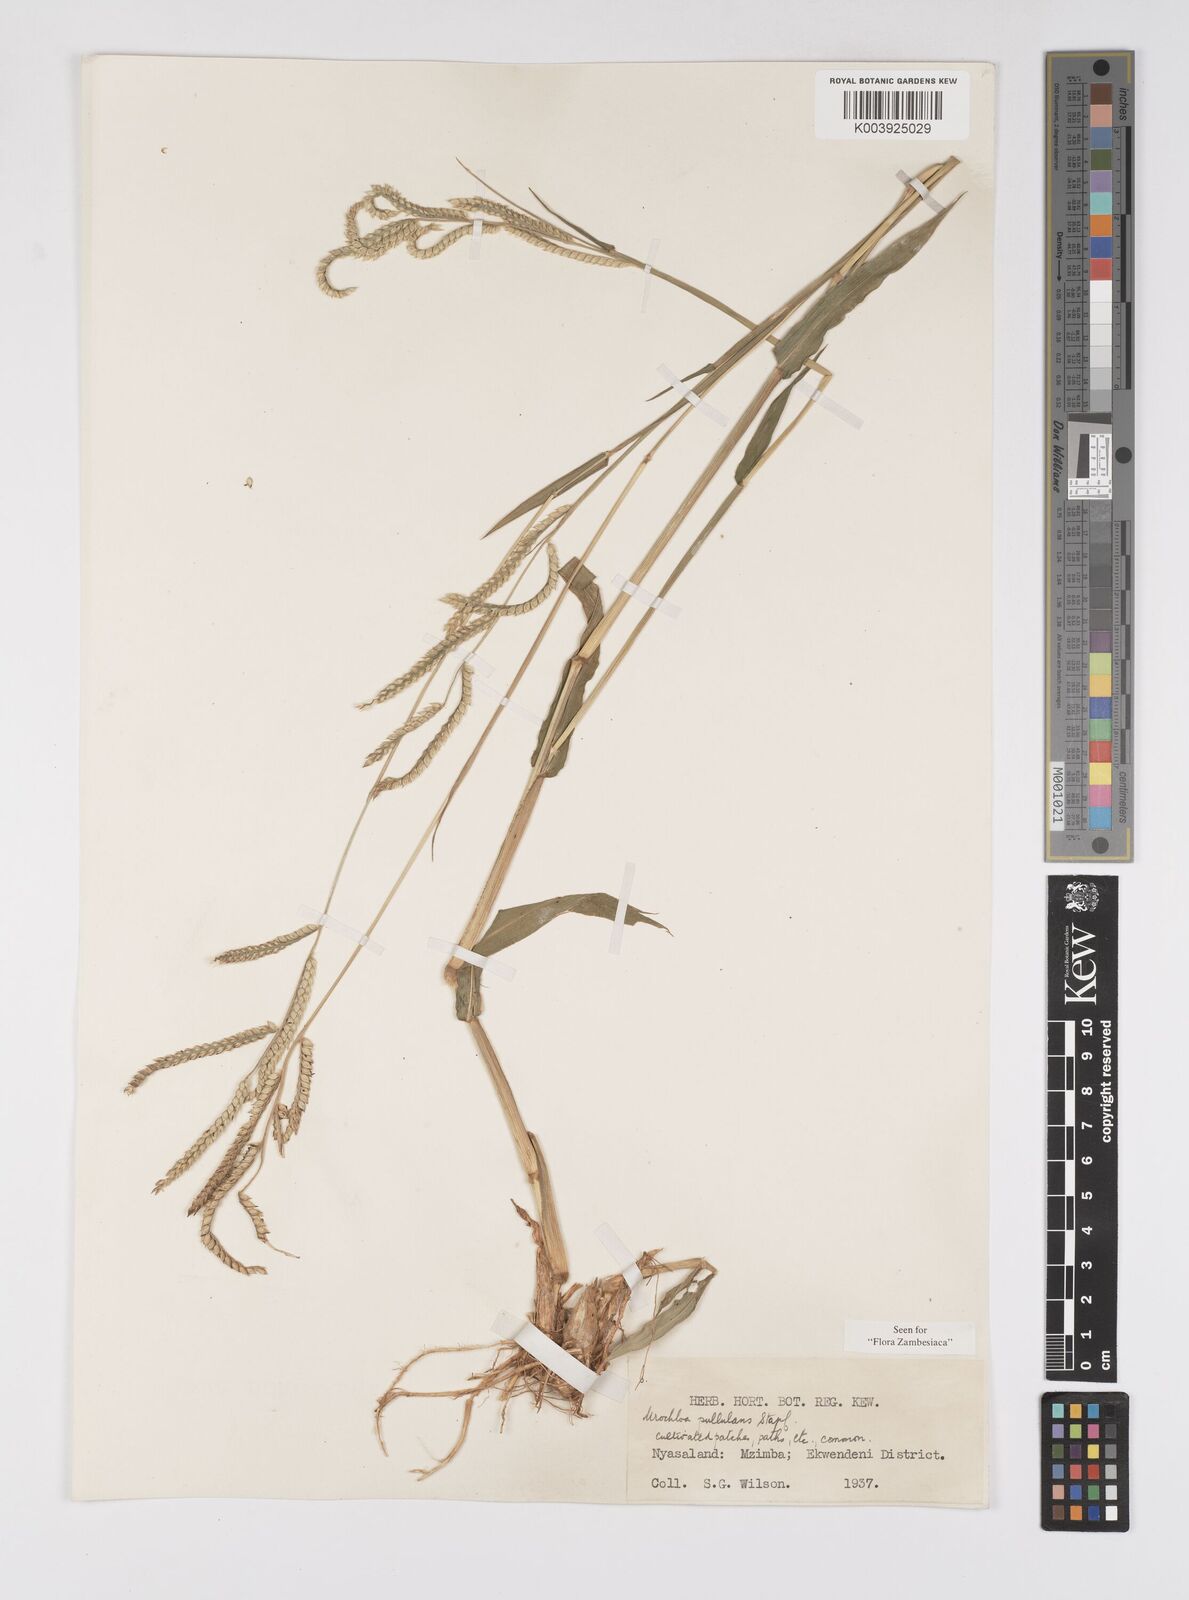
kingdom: Plantae
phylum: Tracheophyta
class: Liliopsida
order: Poales
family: Poaceae
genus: Urochloa
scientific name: Urochloa trichopus
